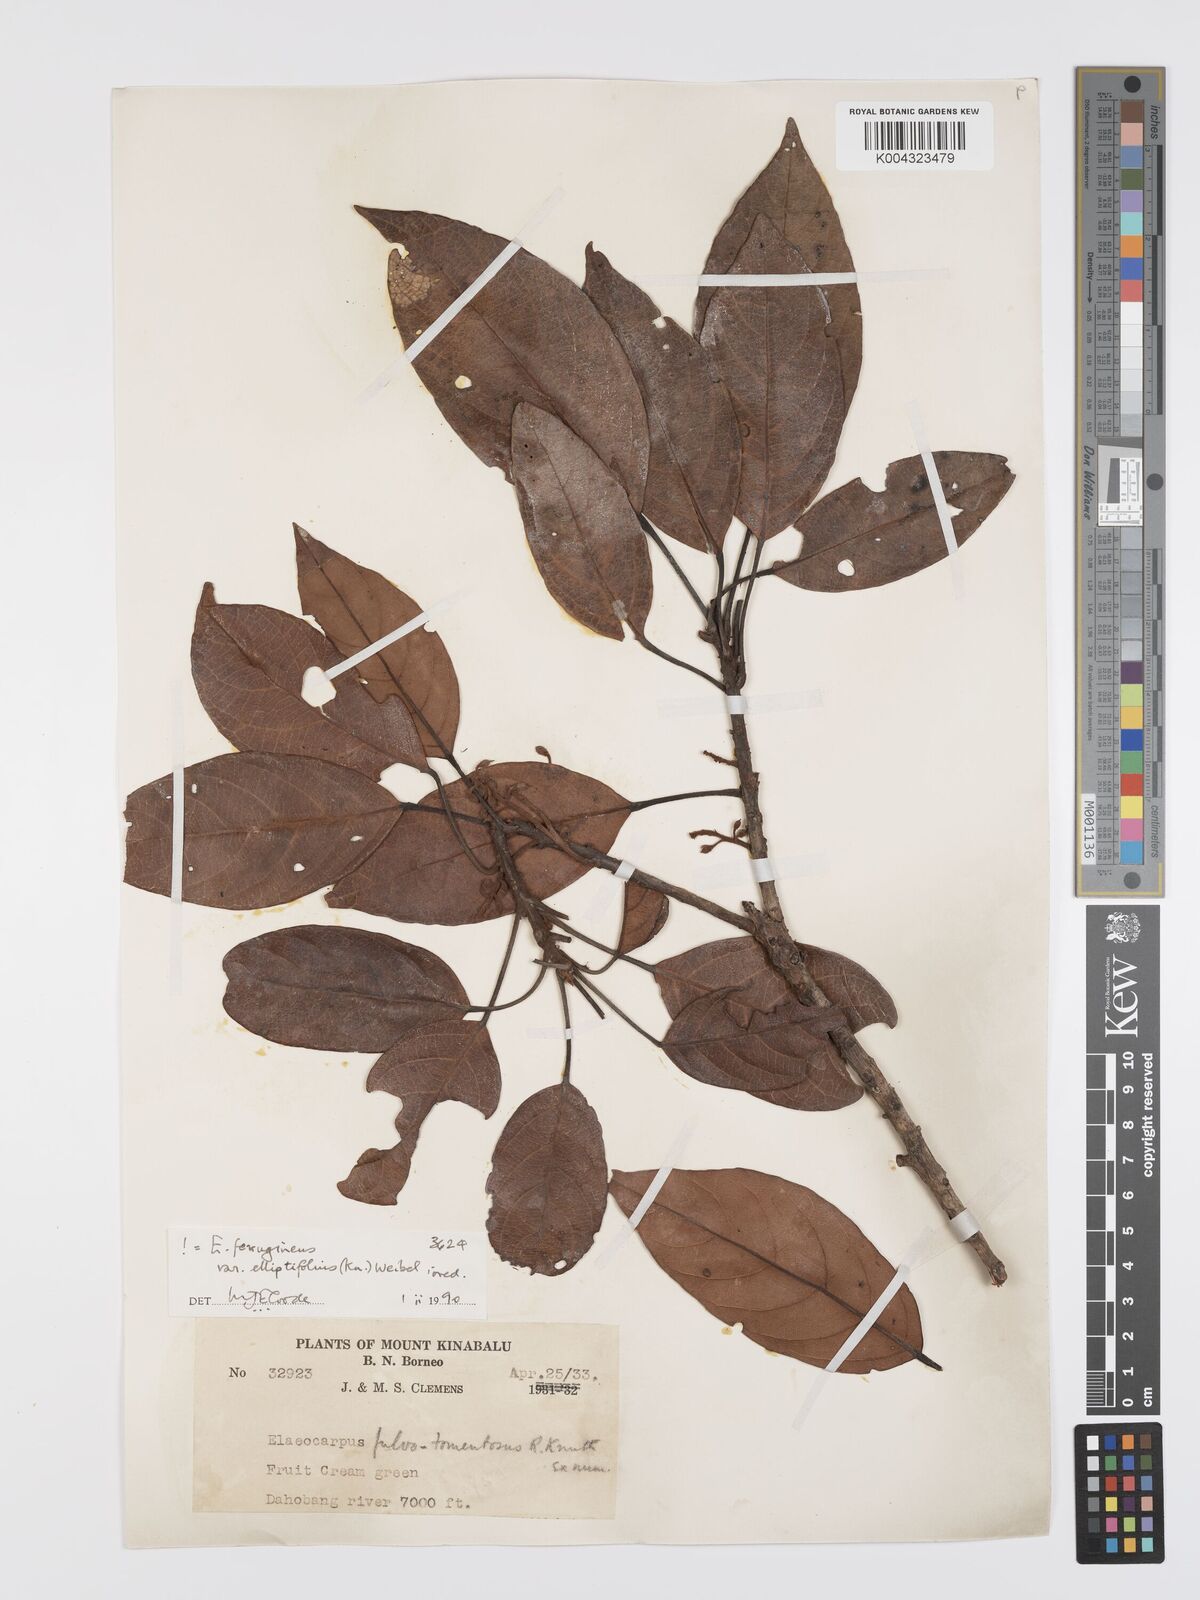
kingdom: Plantae
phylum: Tracheophyta
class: Magnoliopsida
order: Oxalidales
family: Elaeocarpaceae
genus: Elaeocarpus
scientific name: Elaeocarpus ferrugineus
